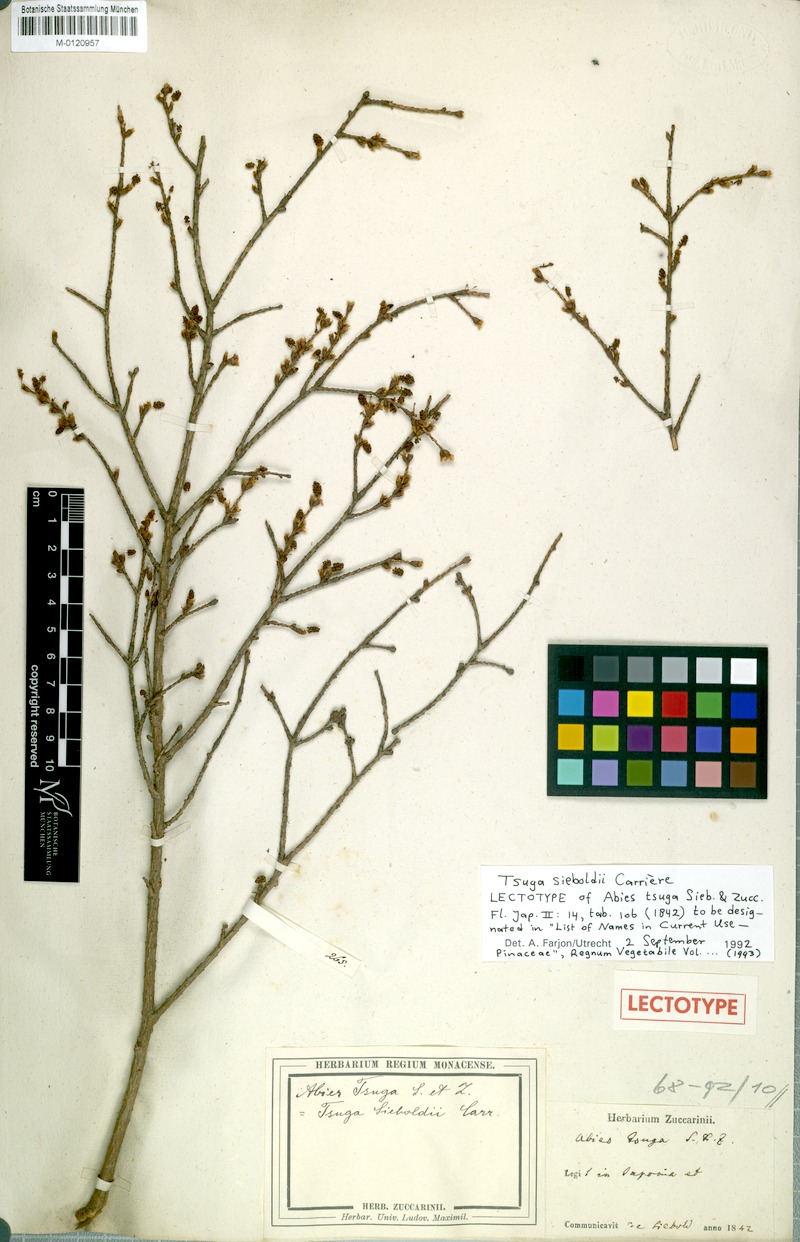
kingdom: Plantae
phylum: Tracheophyta
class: Pinopsida
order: Pinales
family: Pinaceae
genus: Tsuga
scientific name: Tsuga sieboldii
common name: Japanese hemlock
